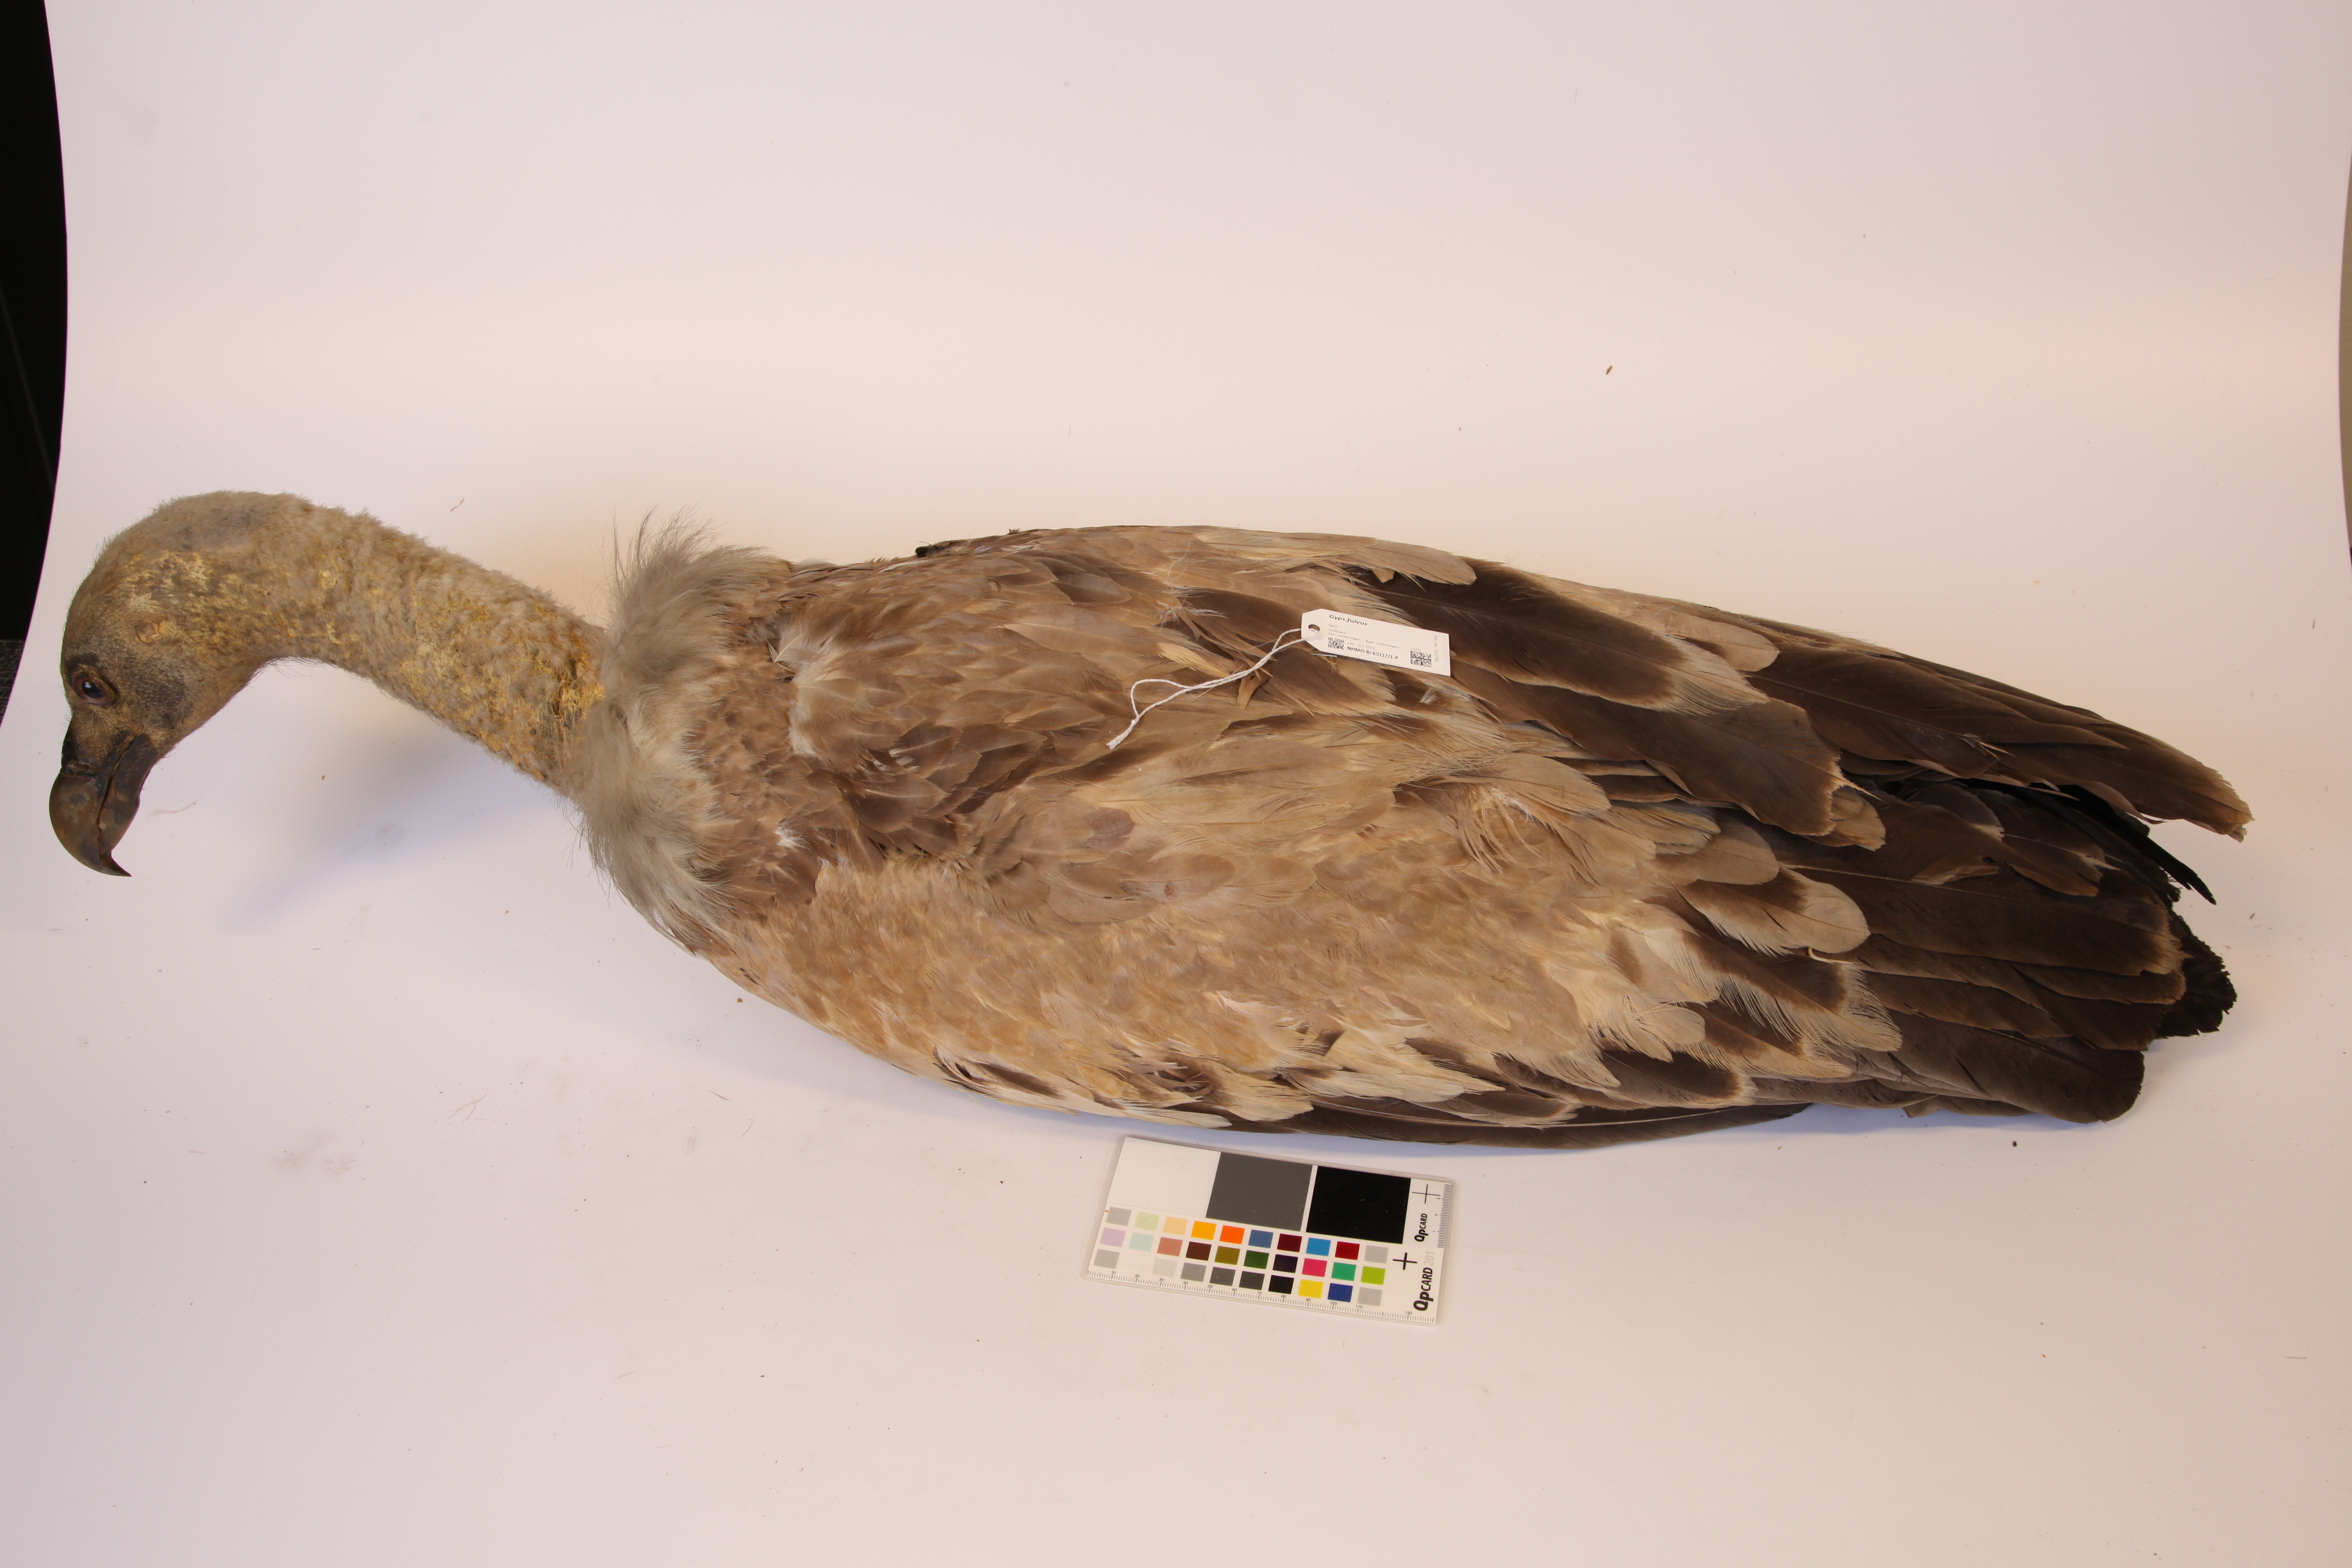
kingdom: Animalia
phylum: Chordata
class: Aves
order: Accipitriformes
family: Accipitridae
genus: Gyps
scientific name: Gyps fulvus
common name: Griffon vulture
